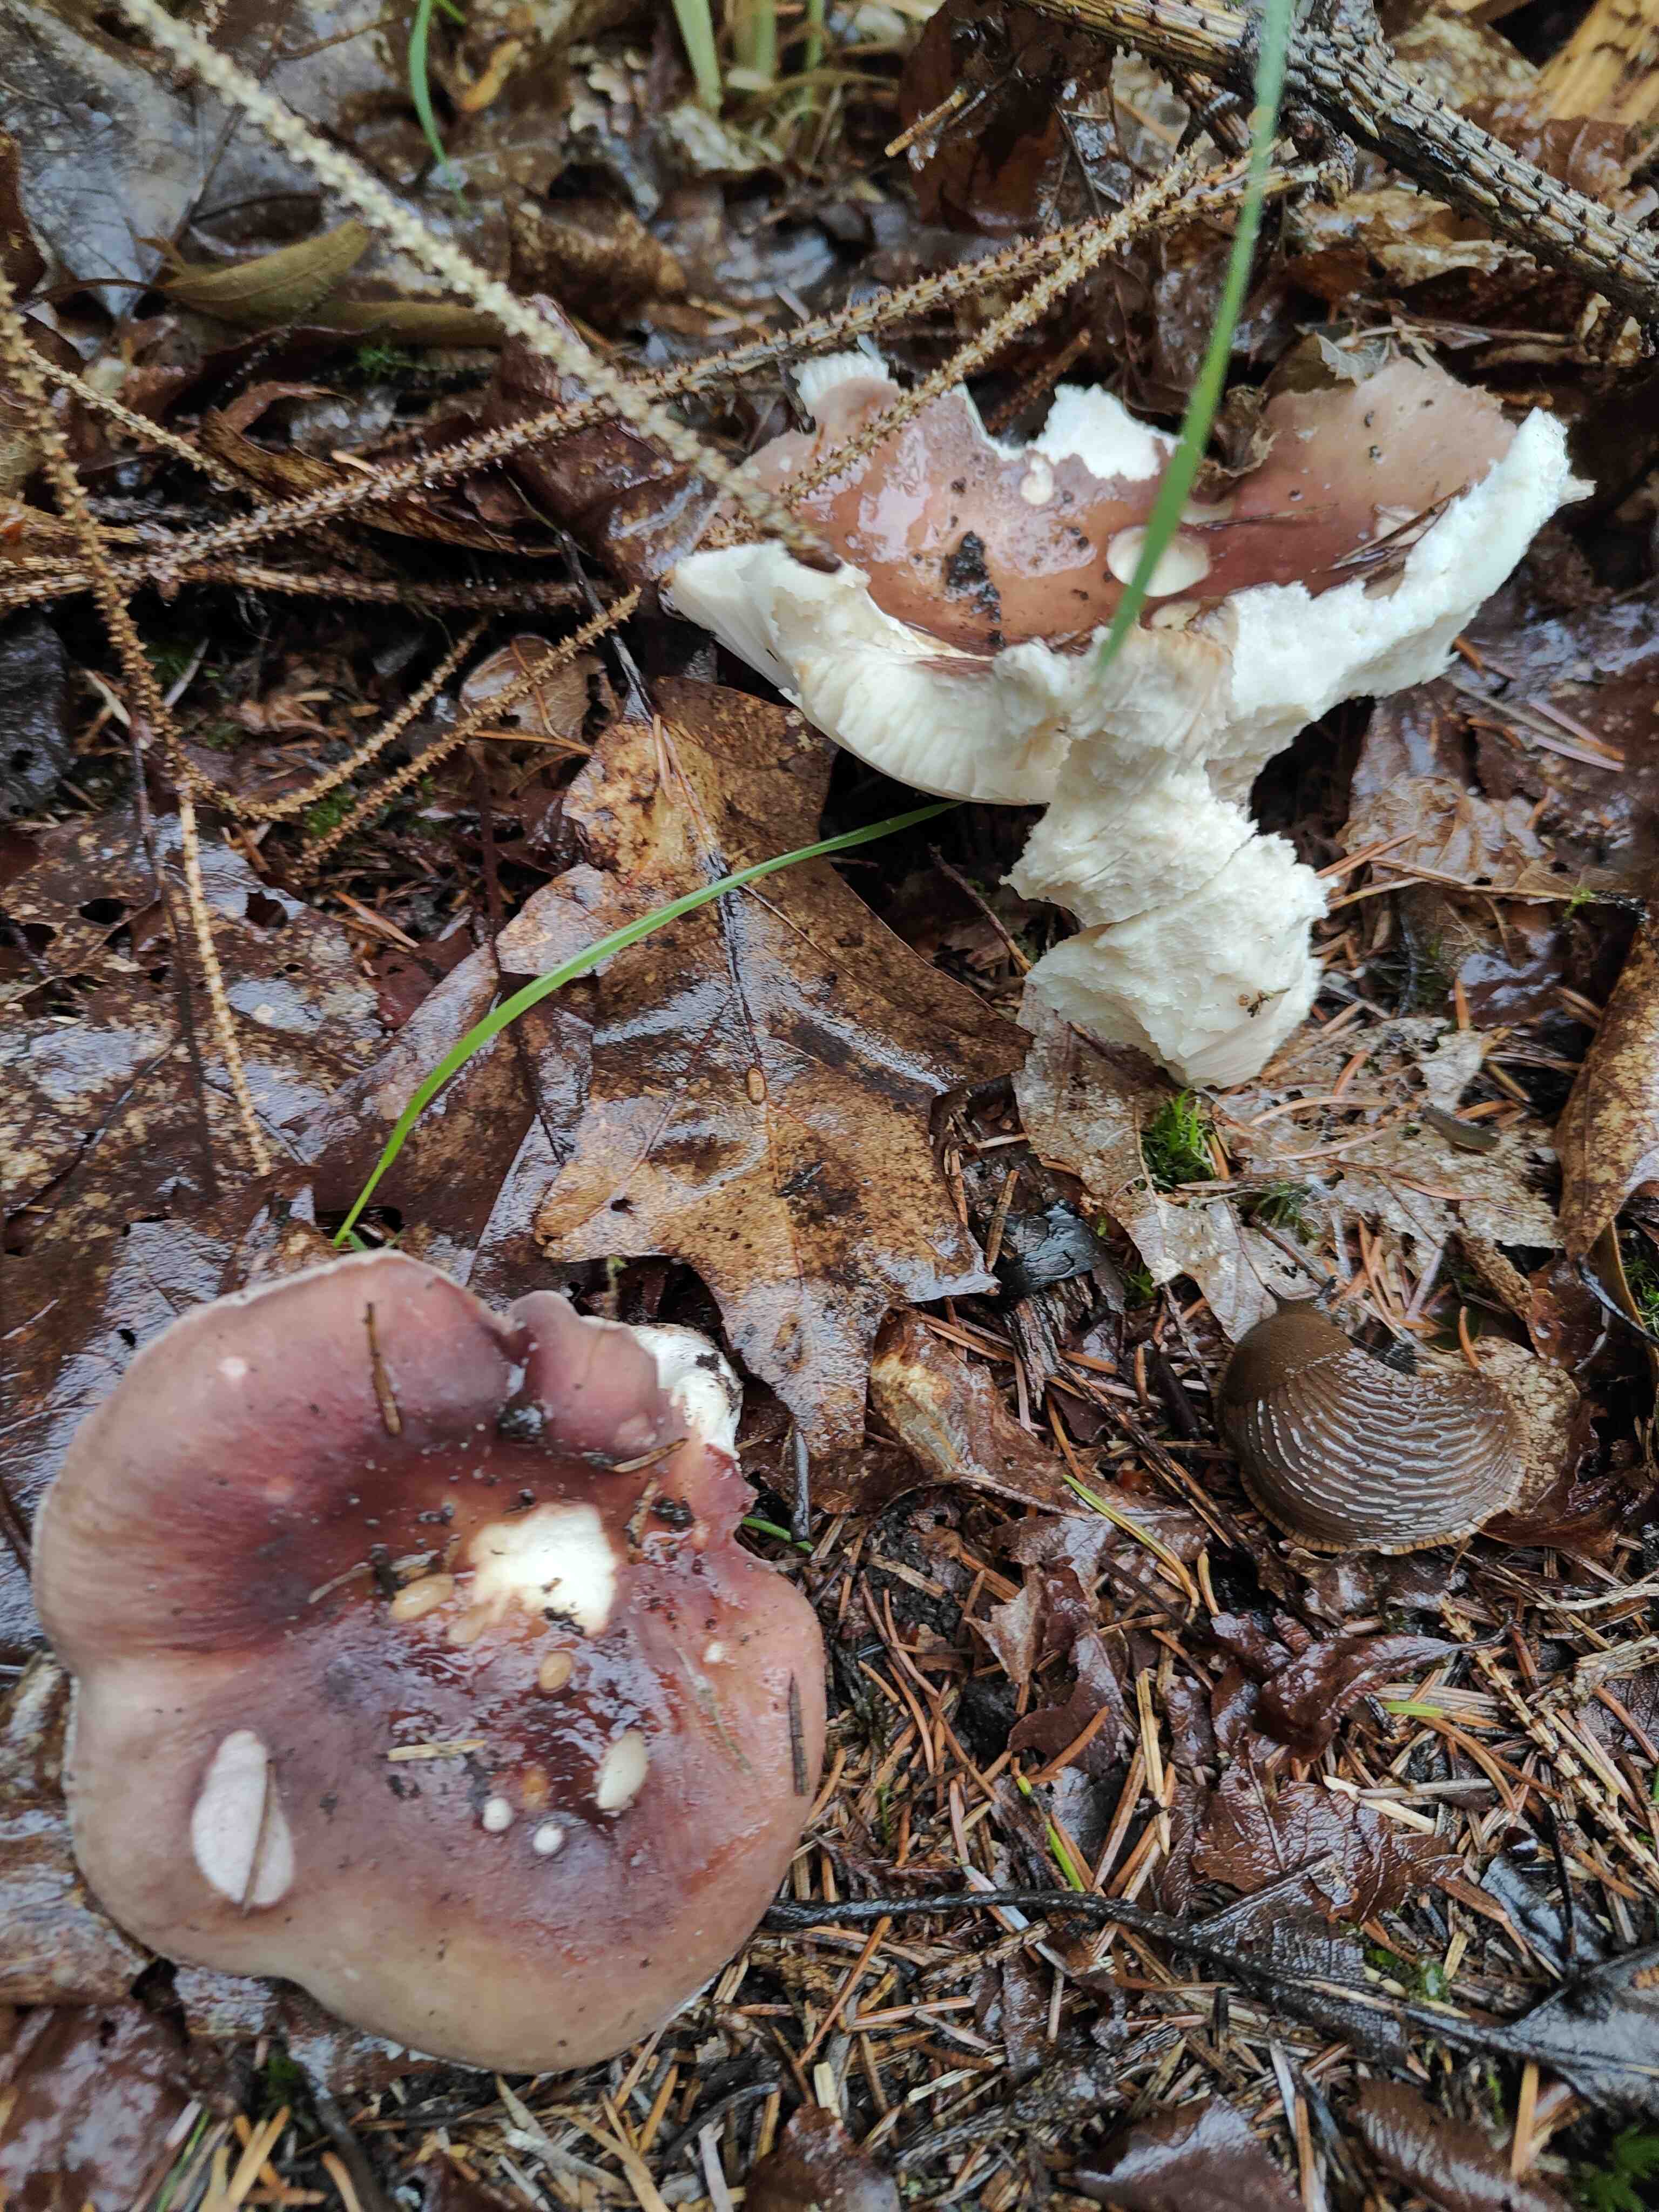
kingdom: Fungi
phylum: Basidiomycota
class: Agaricomycetes
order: Russulales
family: Russulaceae
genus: Russula
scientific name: Russula vesca
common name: spiselig skørhat
